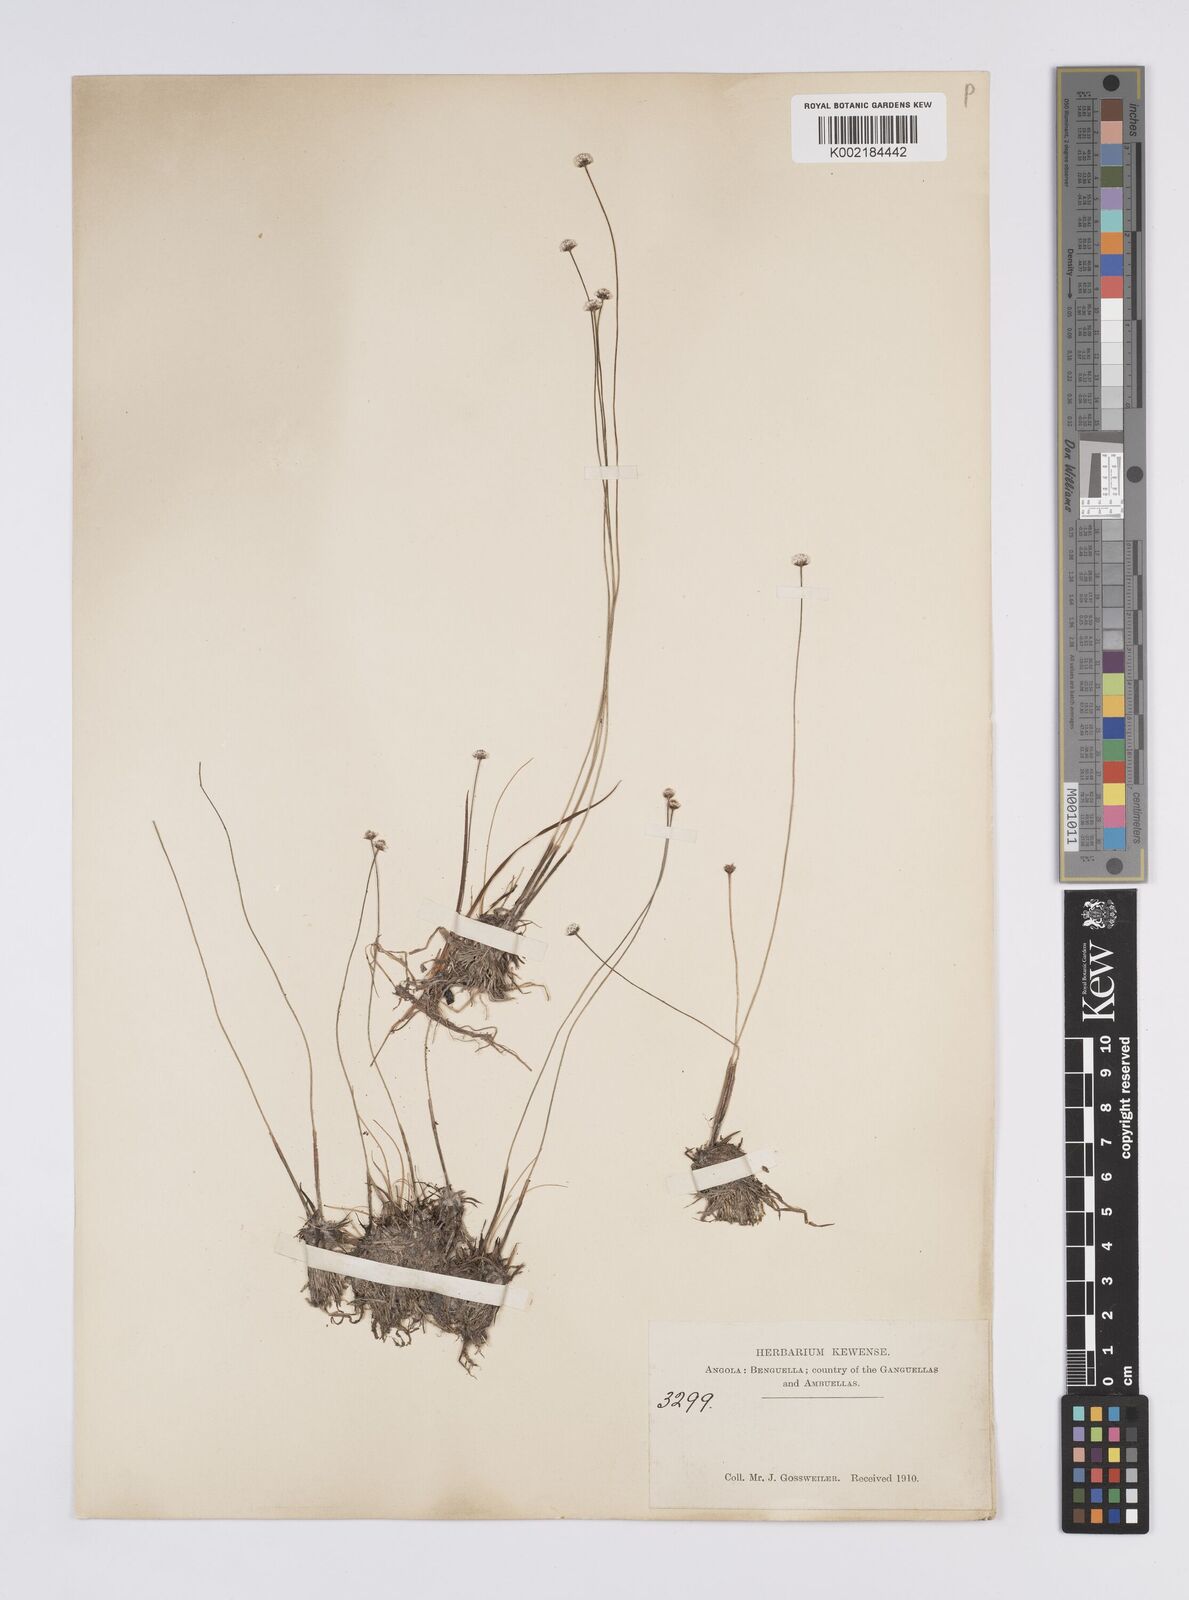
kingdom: Plantae
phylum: Tracheophyta
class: Liliopsida
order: Poales
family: Eriocaulaceae
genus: Eriocaulon
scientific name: Eriocaulon
